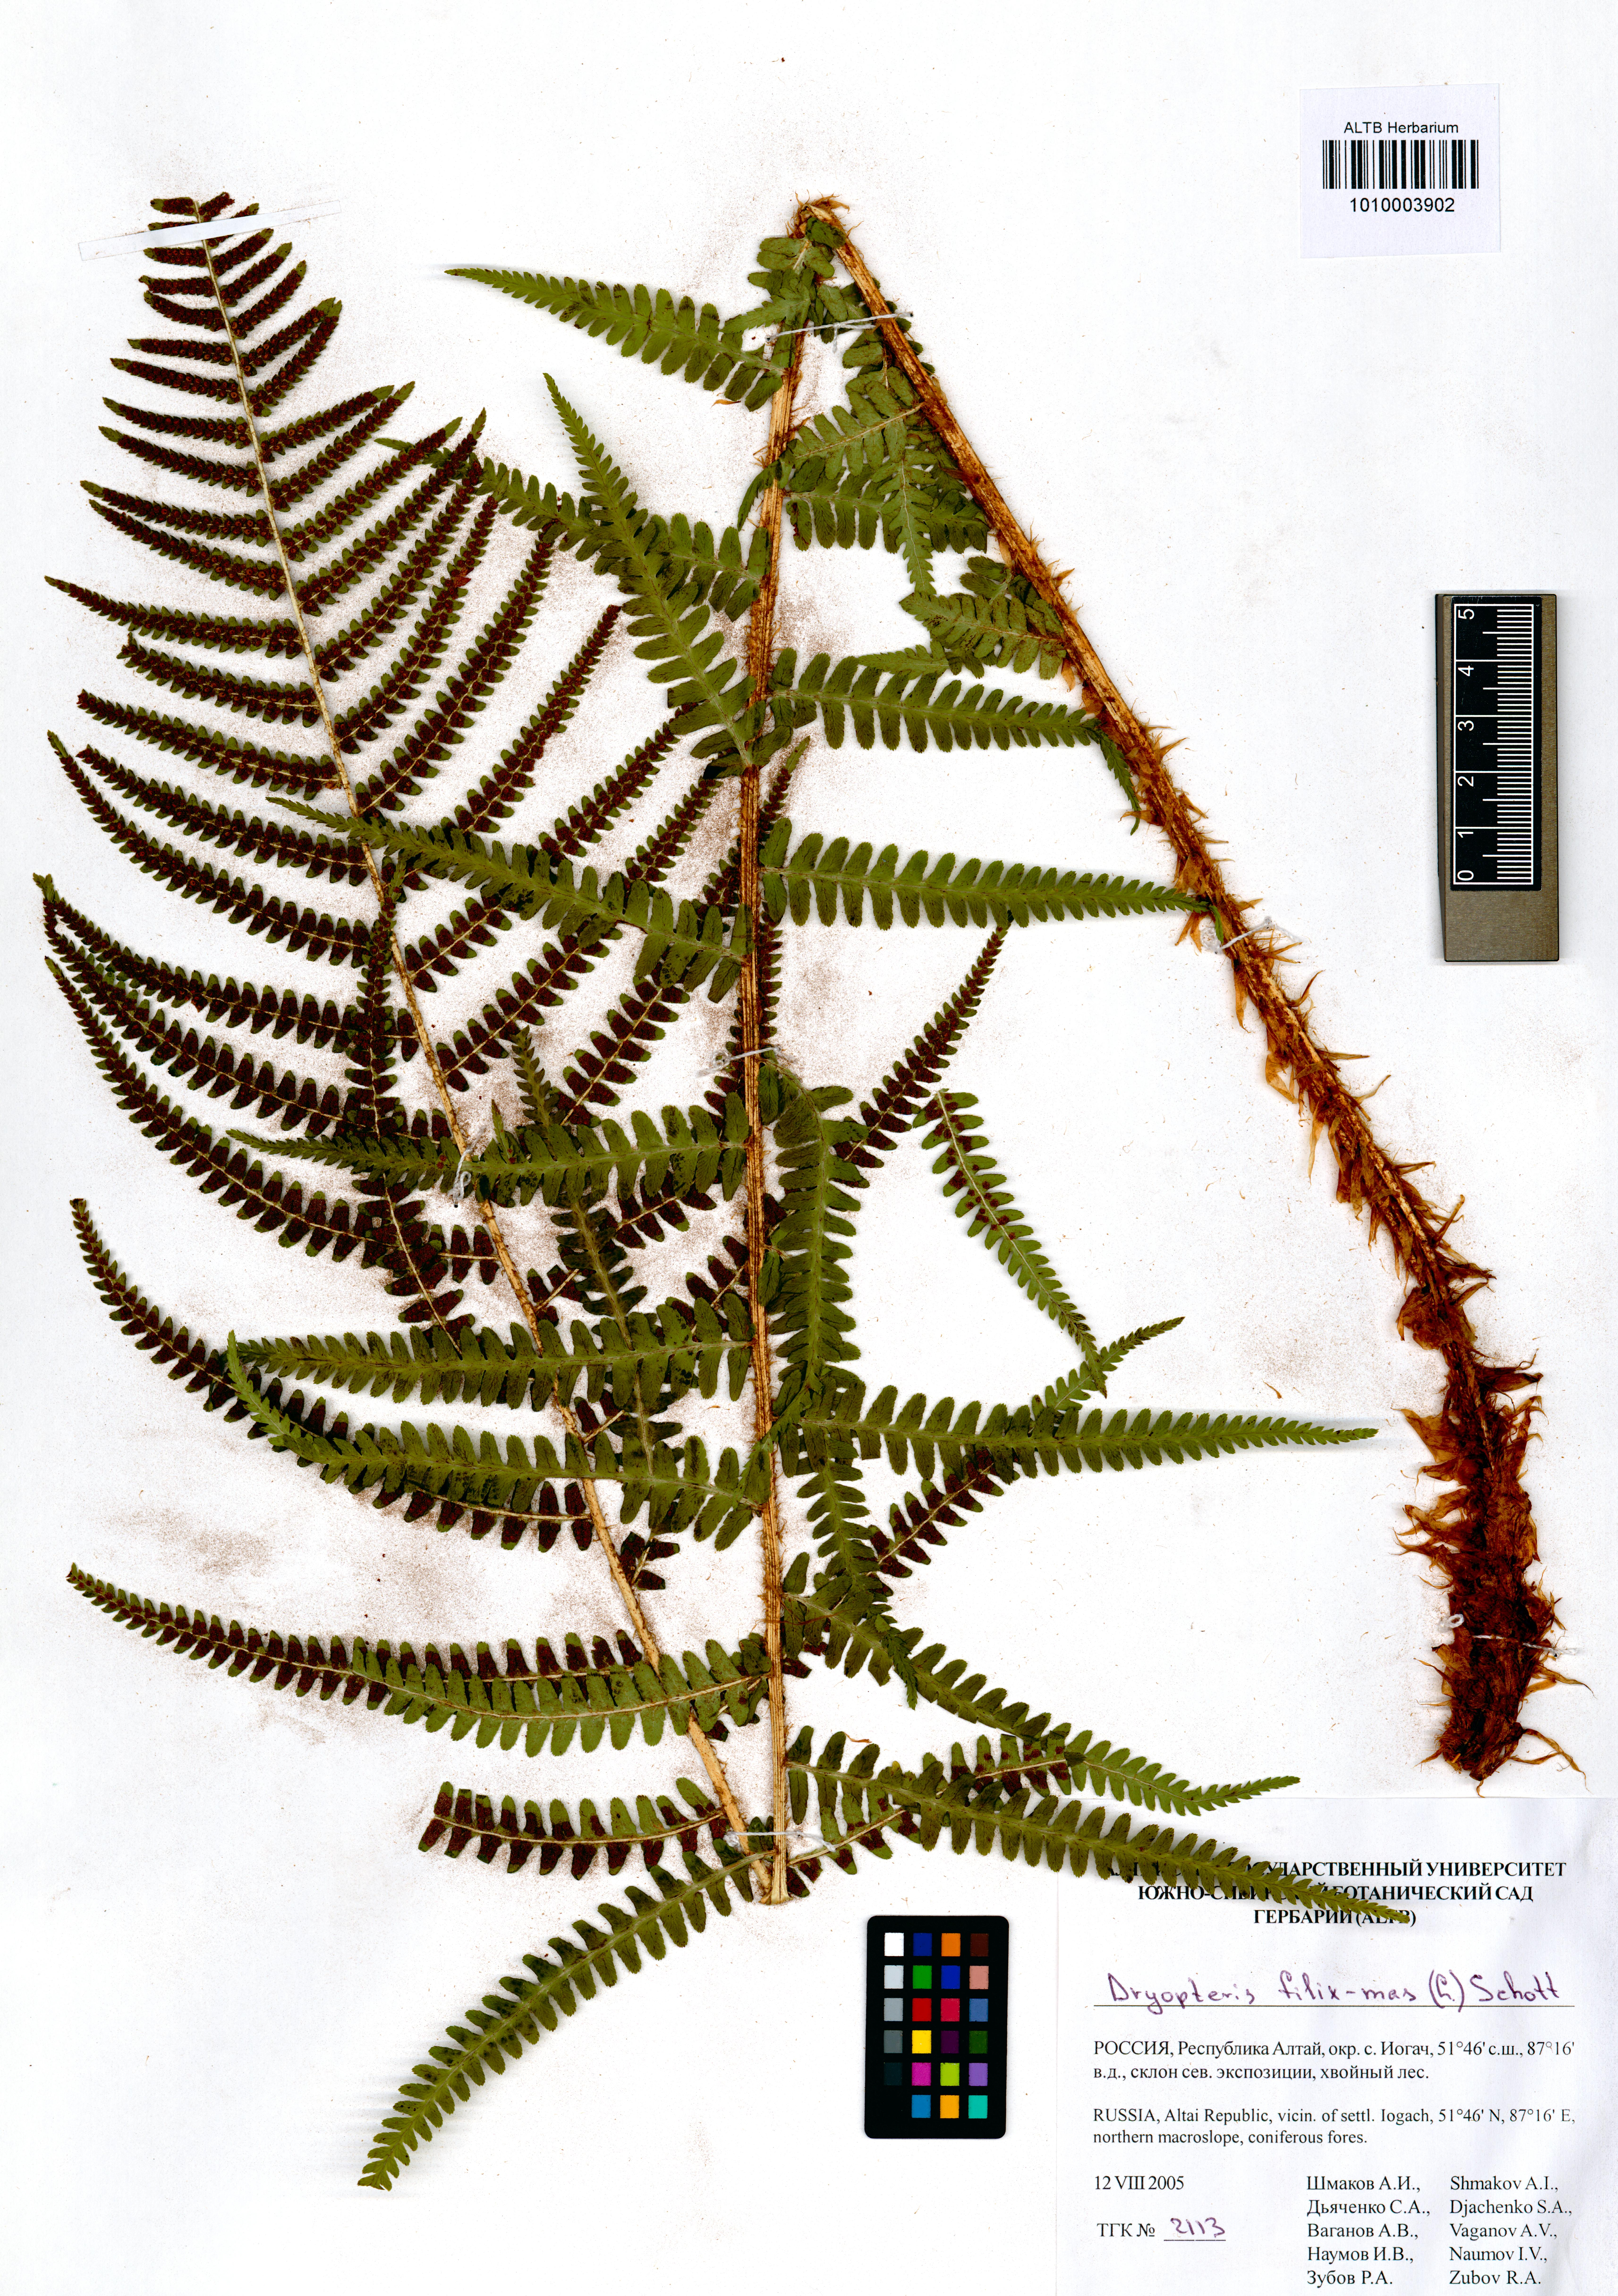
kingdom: Plantae
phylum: Tracheophyta
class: Polypodiopsida
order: Polypodiales
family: Dryopteridaceae
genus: Dryopteris
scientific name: Dryopteris filix-mas
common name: Male fern
